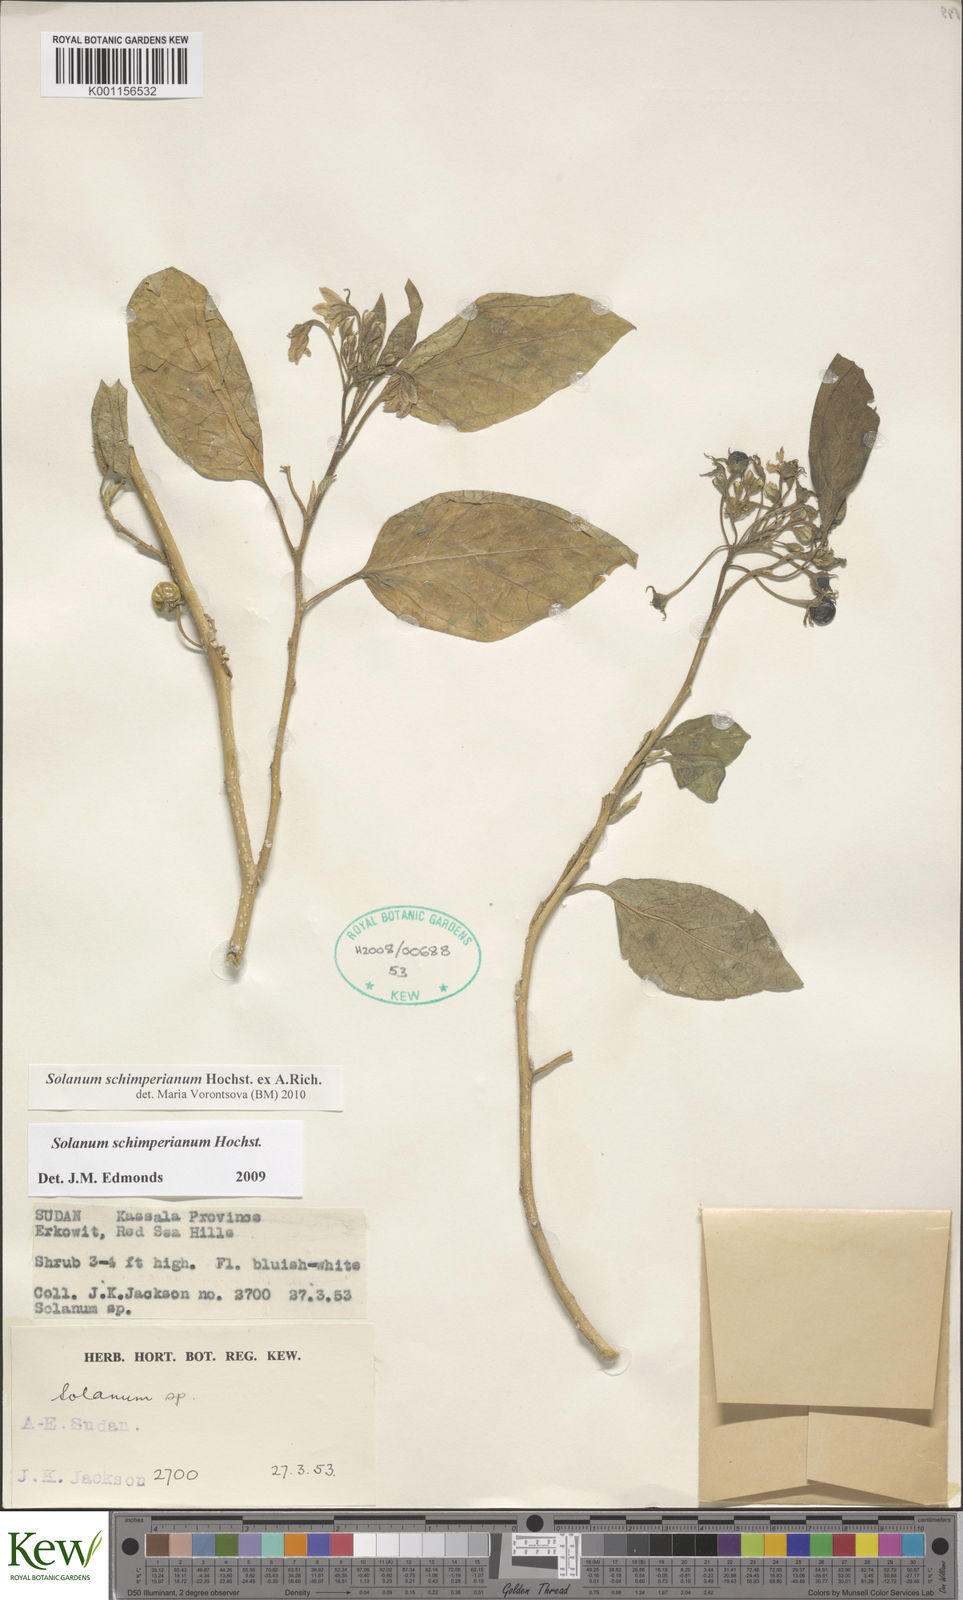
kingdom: Plantae
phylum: Tracheophyta
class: Magnoliopsida
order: Solanales
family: Solanaceae
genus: Solanum
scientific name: Solanum
